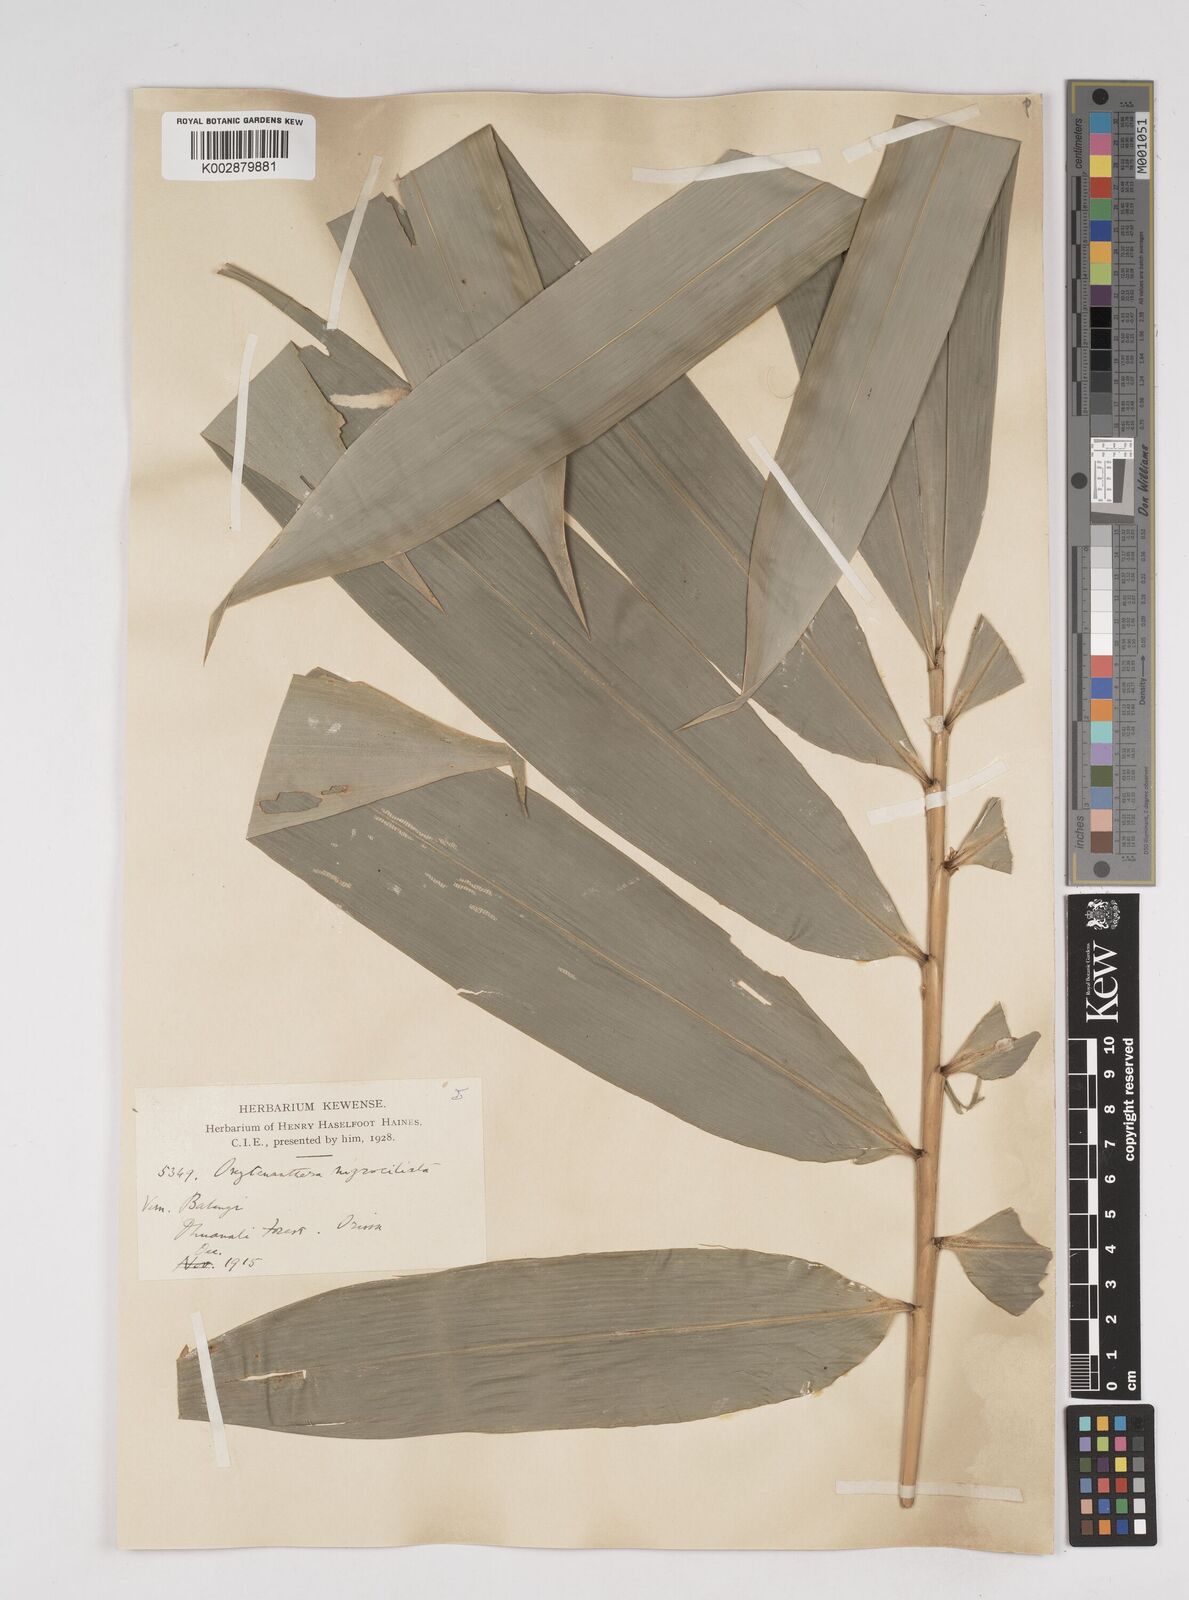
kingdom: Plantae
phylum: Tracheophyta
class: Liliopsida
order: Poales
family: Poaceae
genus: Gigantochloa
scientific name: Gigantochloa
